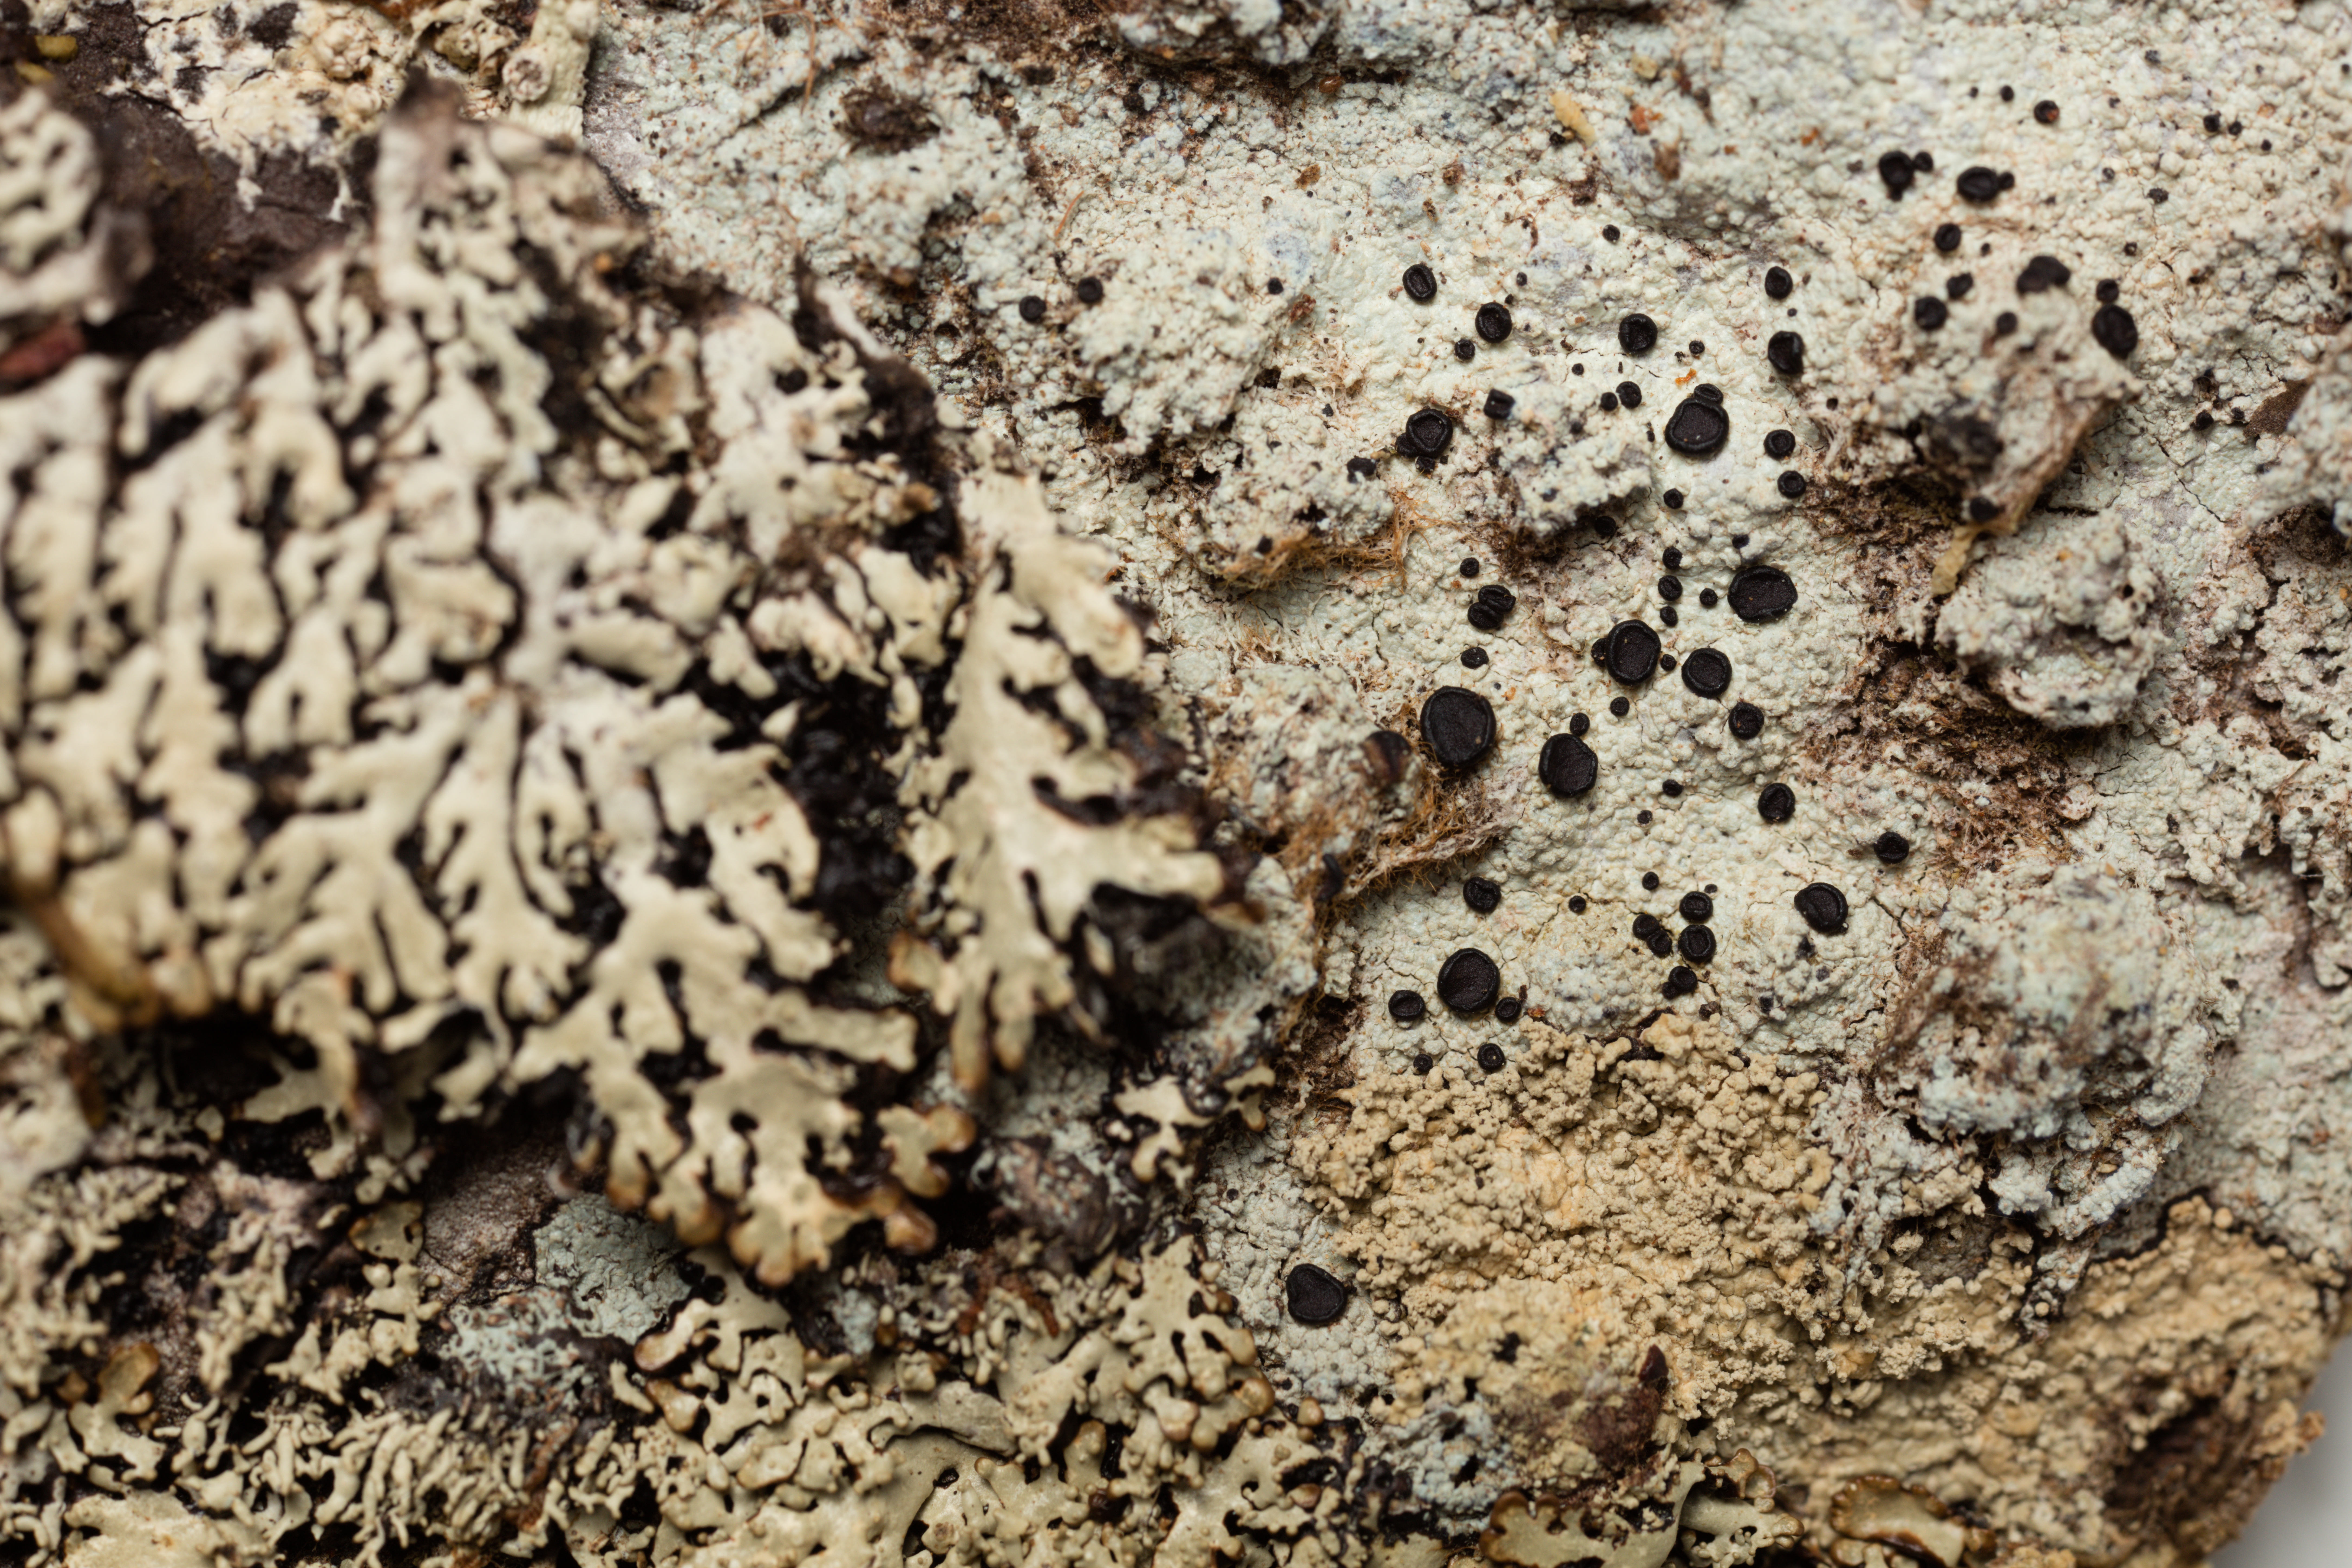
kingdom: Fungi
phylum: Ascomycota
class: Lecanoromycetes
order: Lecanorales
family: Parmeliaceae
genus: Menegazzia
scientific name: Menegazzia eperforata
